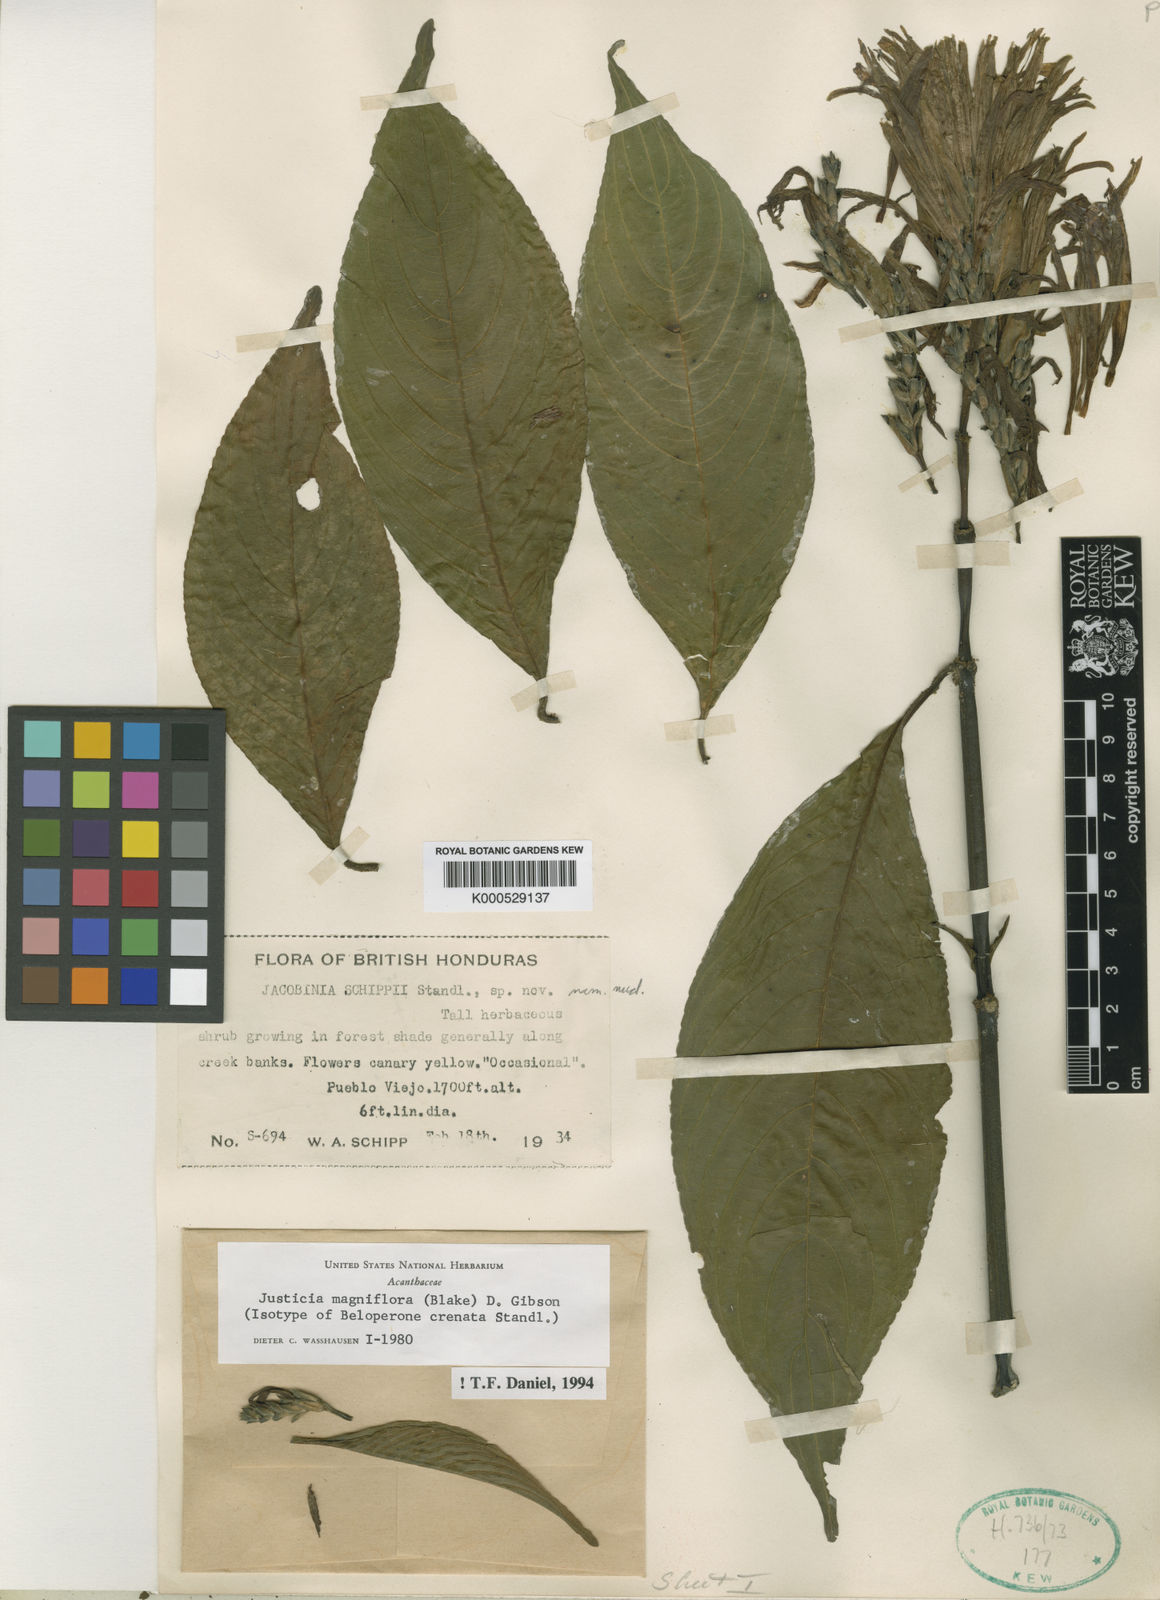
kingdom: Plantae
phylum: Tracheophyta
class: Magnoliopsida
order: Lamiales
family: Acanthaceae
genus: Justicia
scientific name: Justicia fimbriata
